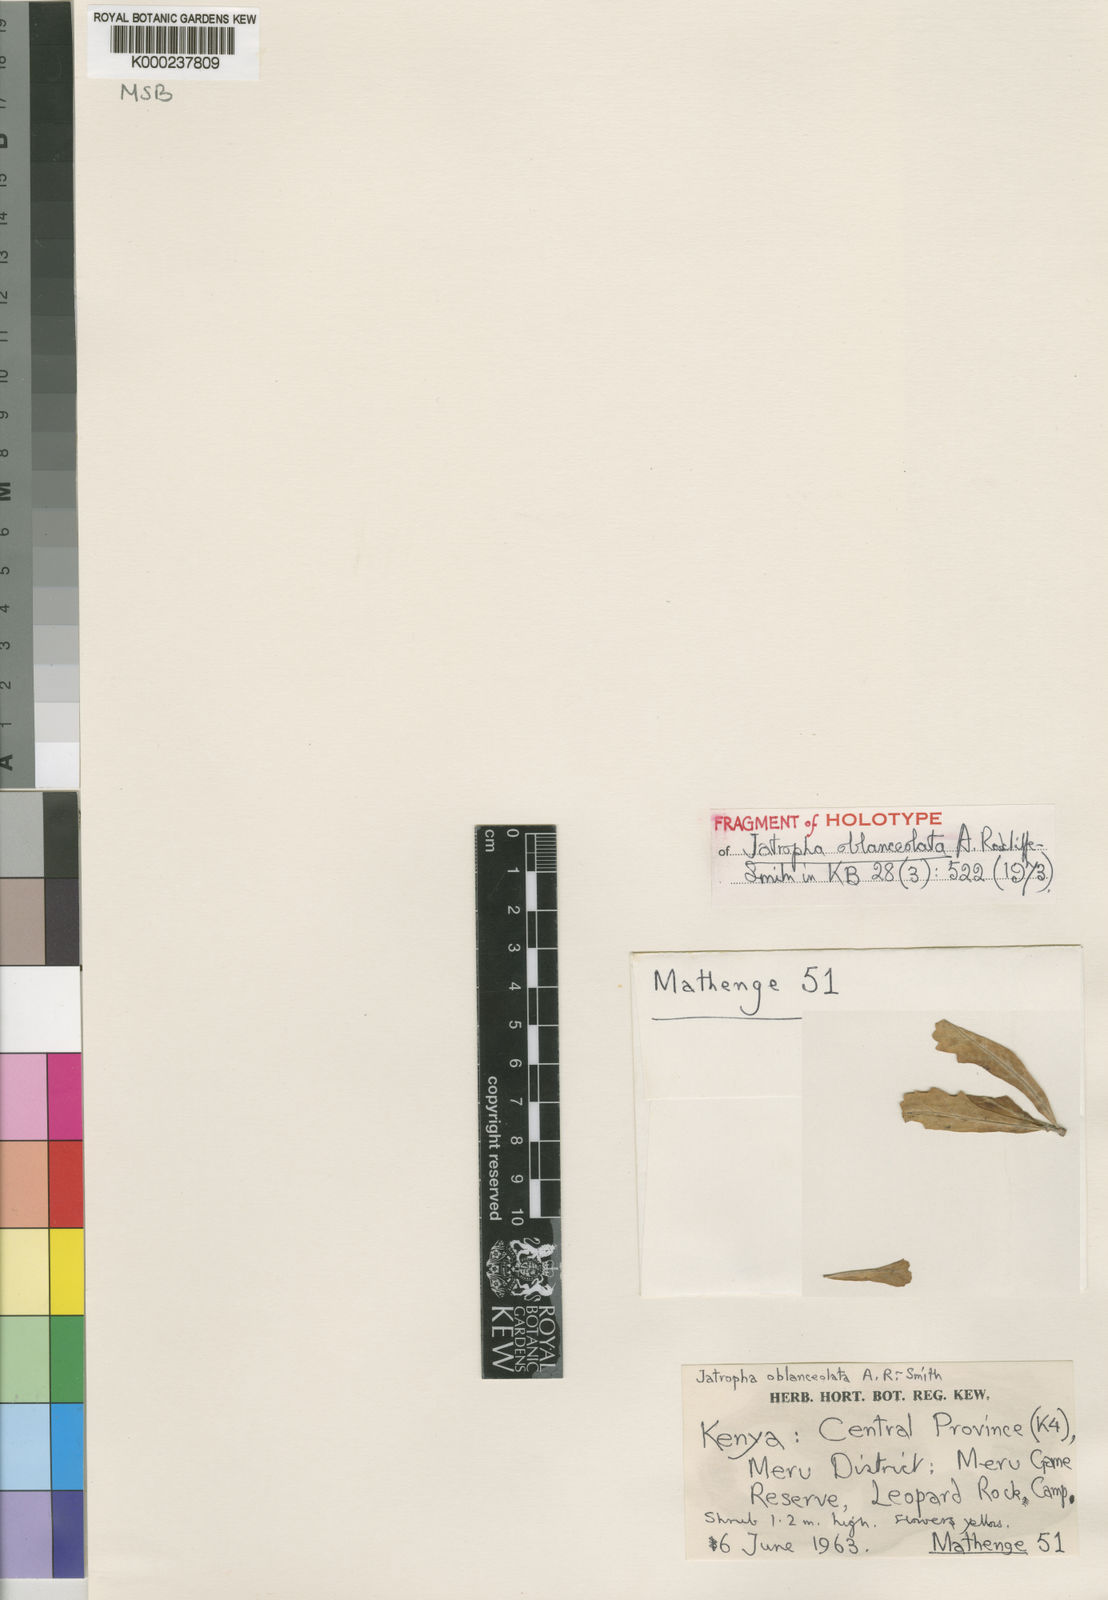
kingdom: Plantae
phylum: Tracheophyta
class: Magnoliopsida
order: Malpighiales
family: Euphorbiaceae
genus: Jatropha
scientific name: Jatropha
